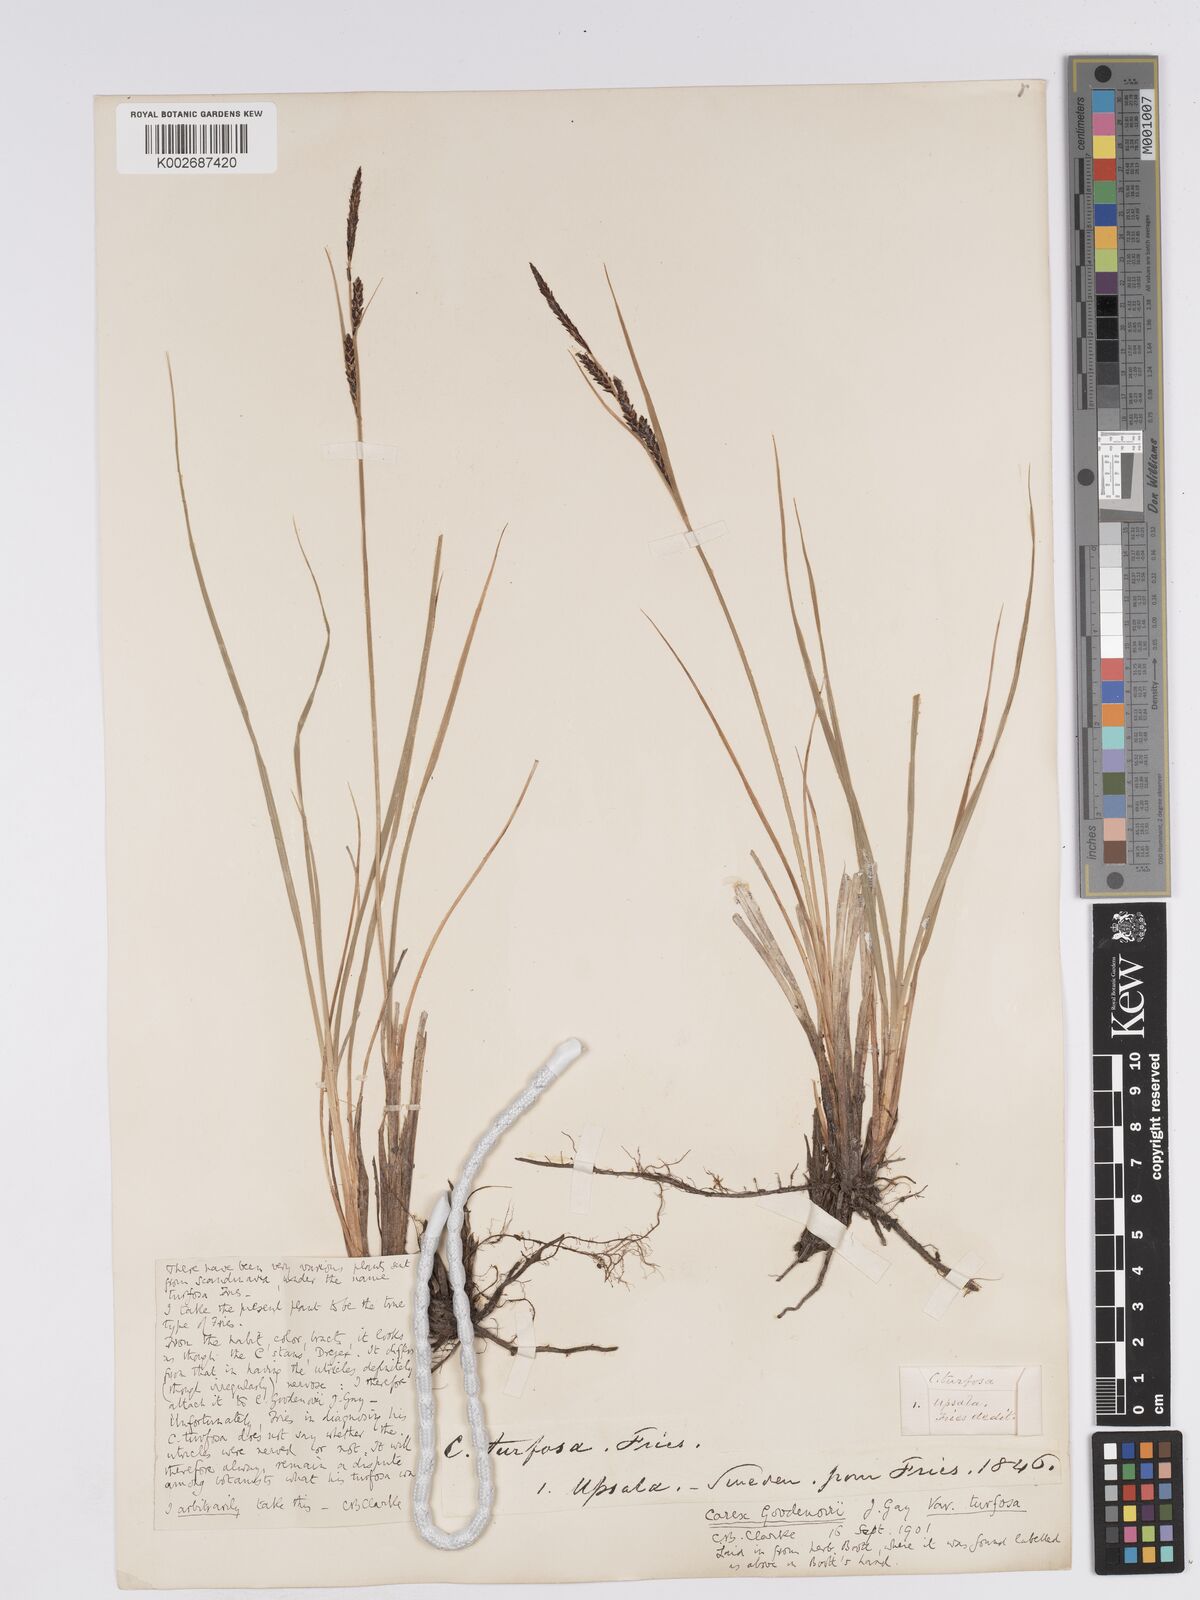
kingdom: Plantae
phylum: Tracheophyta
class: Liliopsida
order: Poales
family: Cyperaceae
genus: Carex
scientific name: Carex nigra
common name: Common sedge
